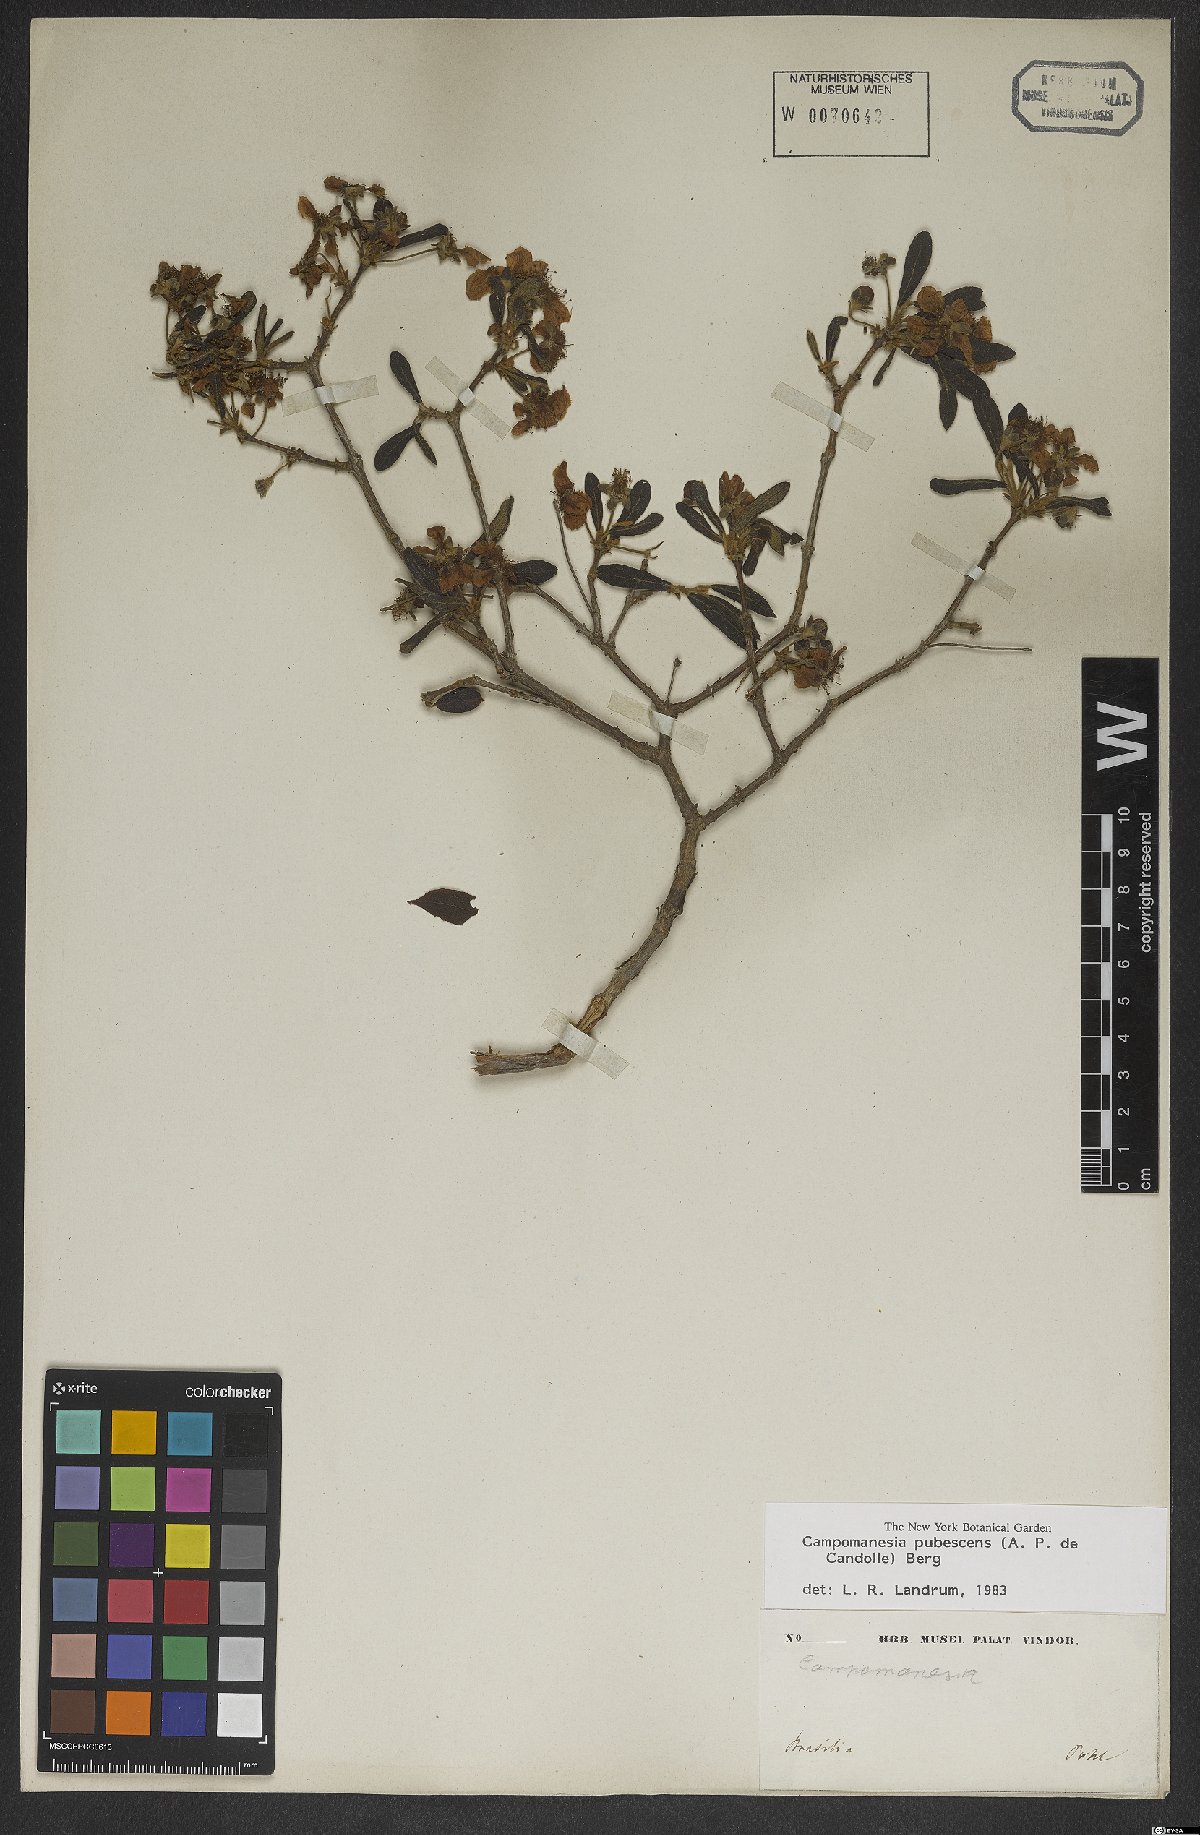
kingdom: Plantae
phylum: Tracheophyta
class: Magnoliopsida
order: Myrtales
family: Myrtaceae
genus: Campomanesia
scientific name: Campomanesia pubescens
